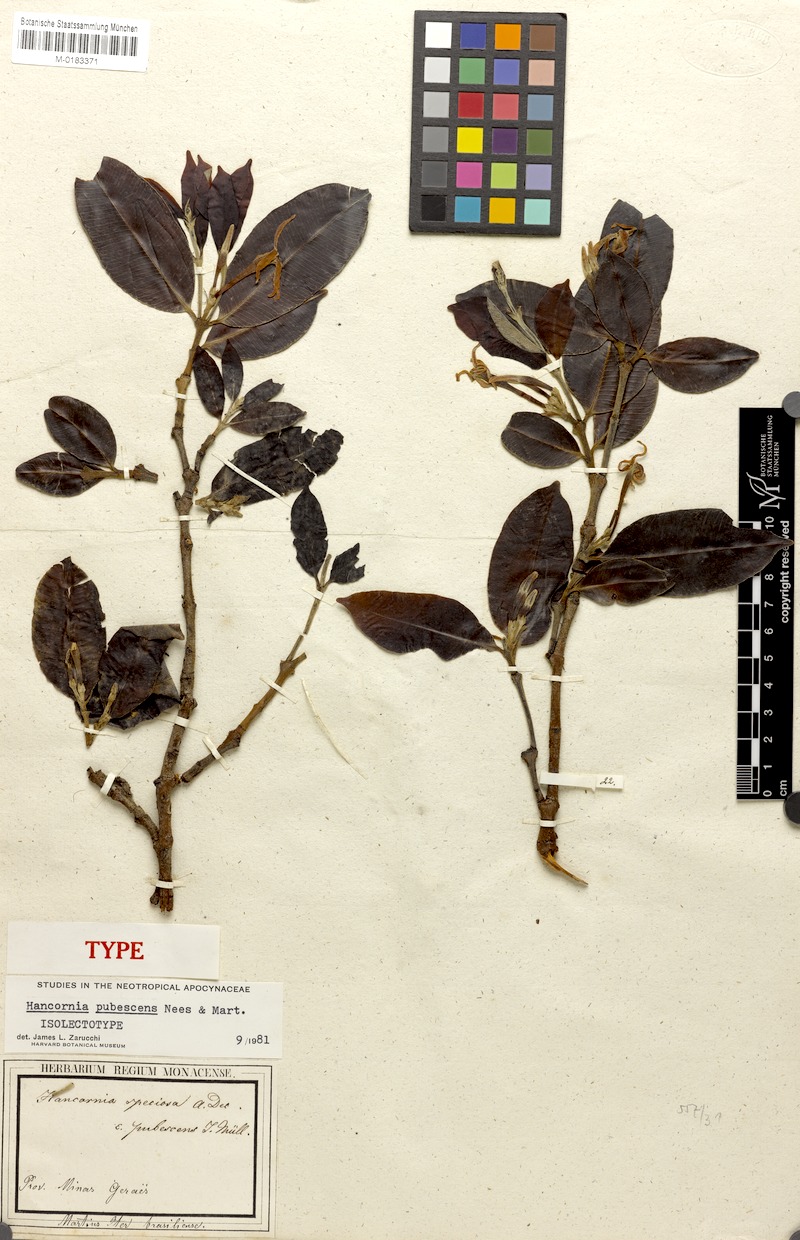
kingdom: Plantae
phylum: Tracheophyta
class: Magnoliopsida
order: Gentianales
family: Apocynaceae
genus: Hancornia
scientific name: Hancornia speciosa
